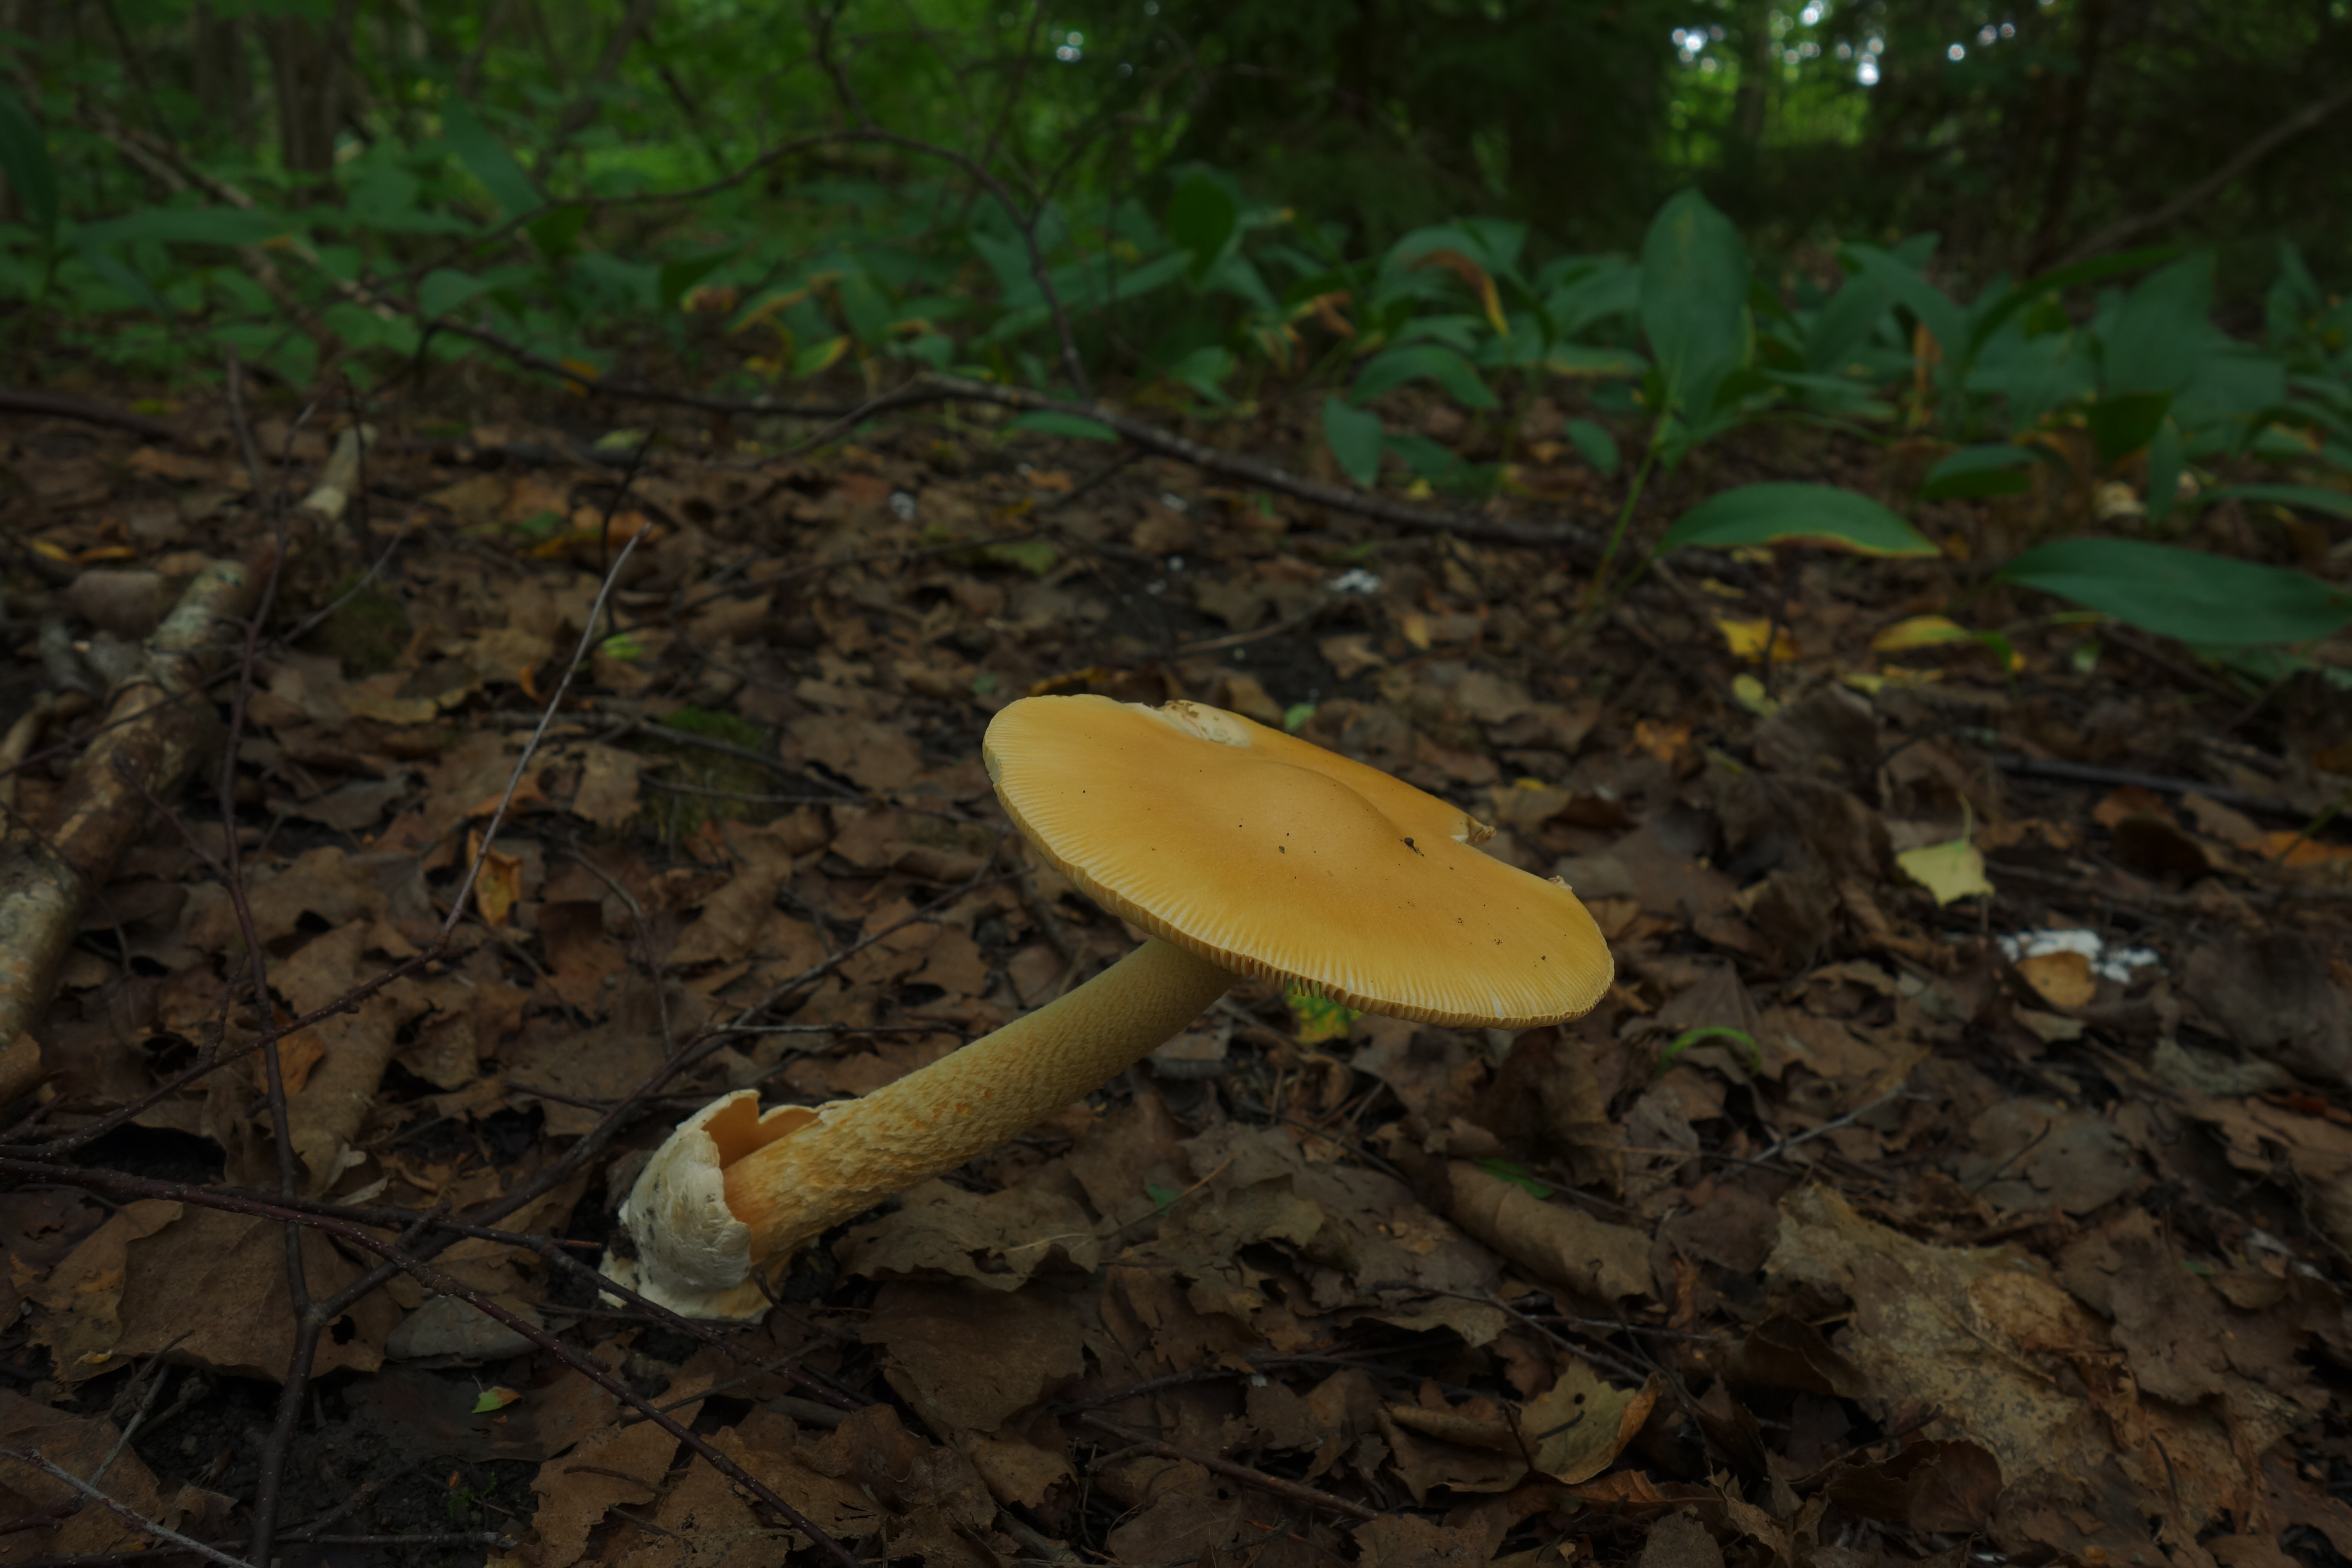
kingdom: Fungi
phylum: Basidiomycota
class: Agaricomycetes
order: Agaricales
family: Amanitaceae
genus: Amanita
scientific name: Amanita crocea
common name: Orange grisette
